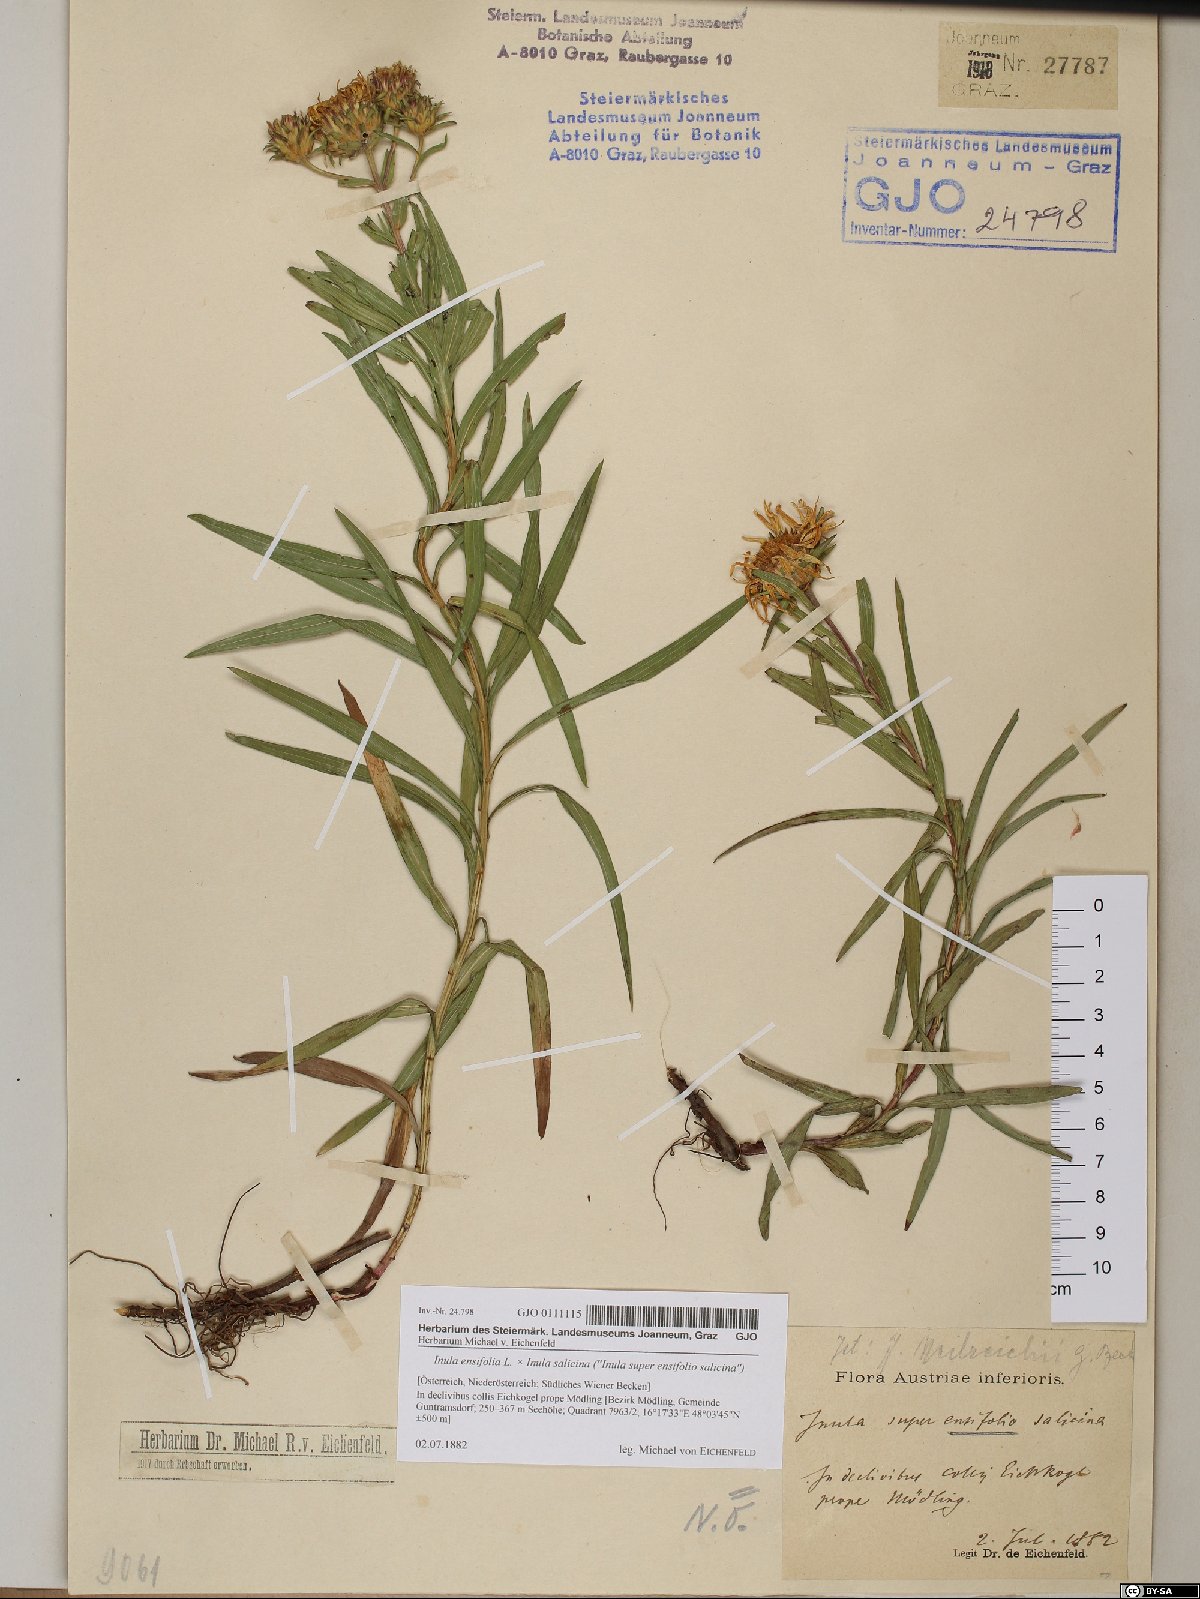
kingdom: Plantae
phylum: Tracheophyta
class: Magnoliopsida
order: Asterales
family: Asteraceae
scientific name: Asteraceae
